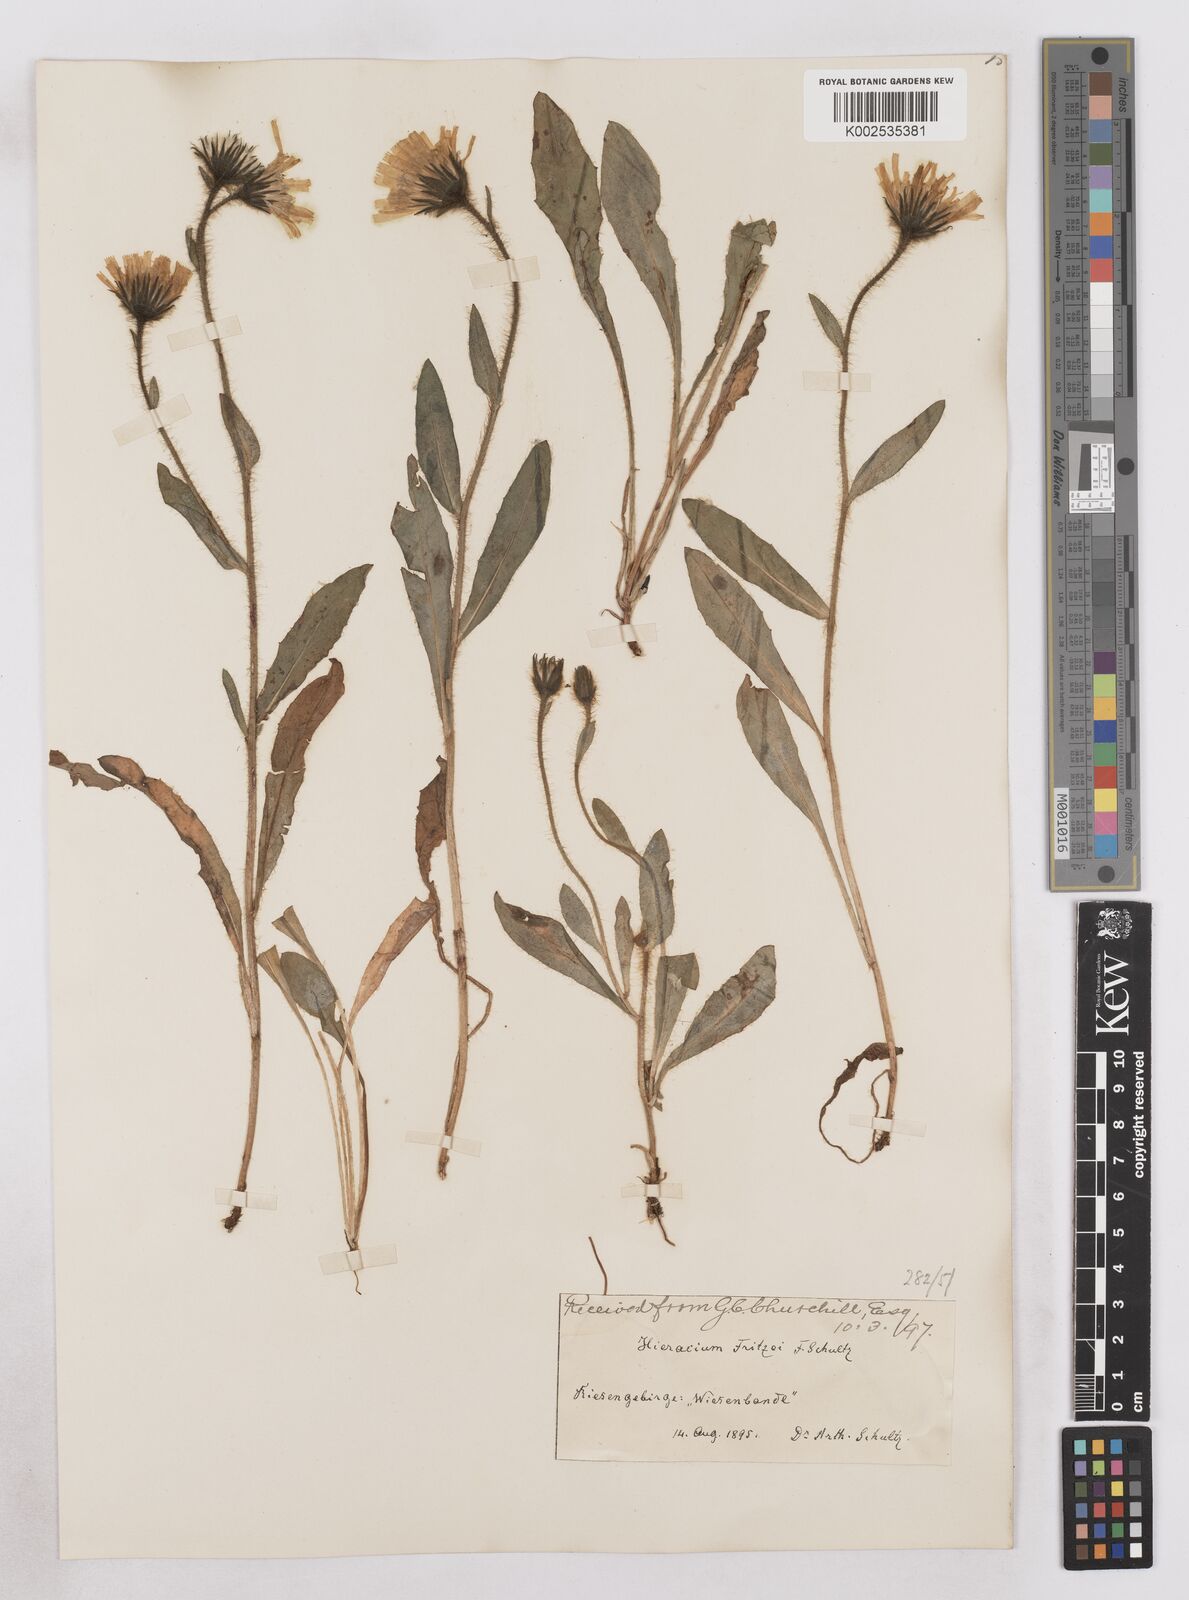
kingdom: Plantae
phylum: Tracheophyta
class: Magnoliopsida
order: Asterales
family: Asteraceae
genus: Hieracium
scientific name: Hieracium fritzei
